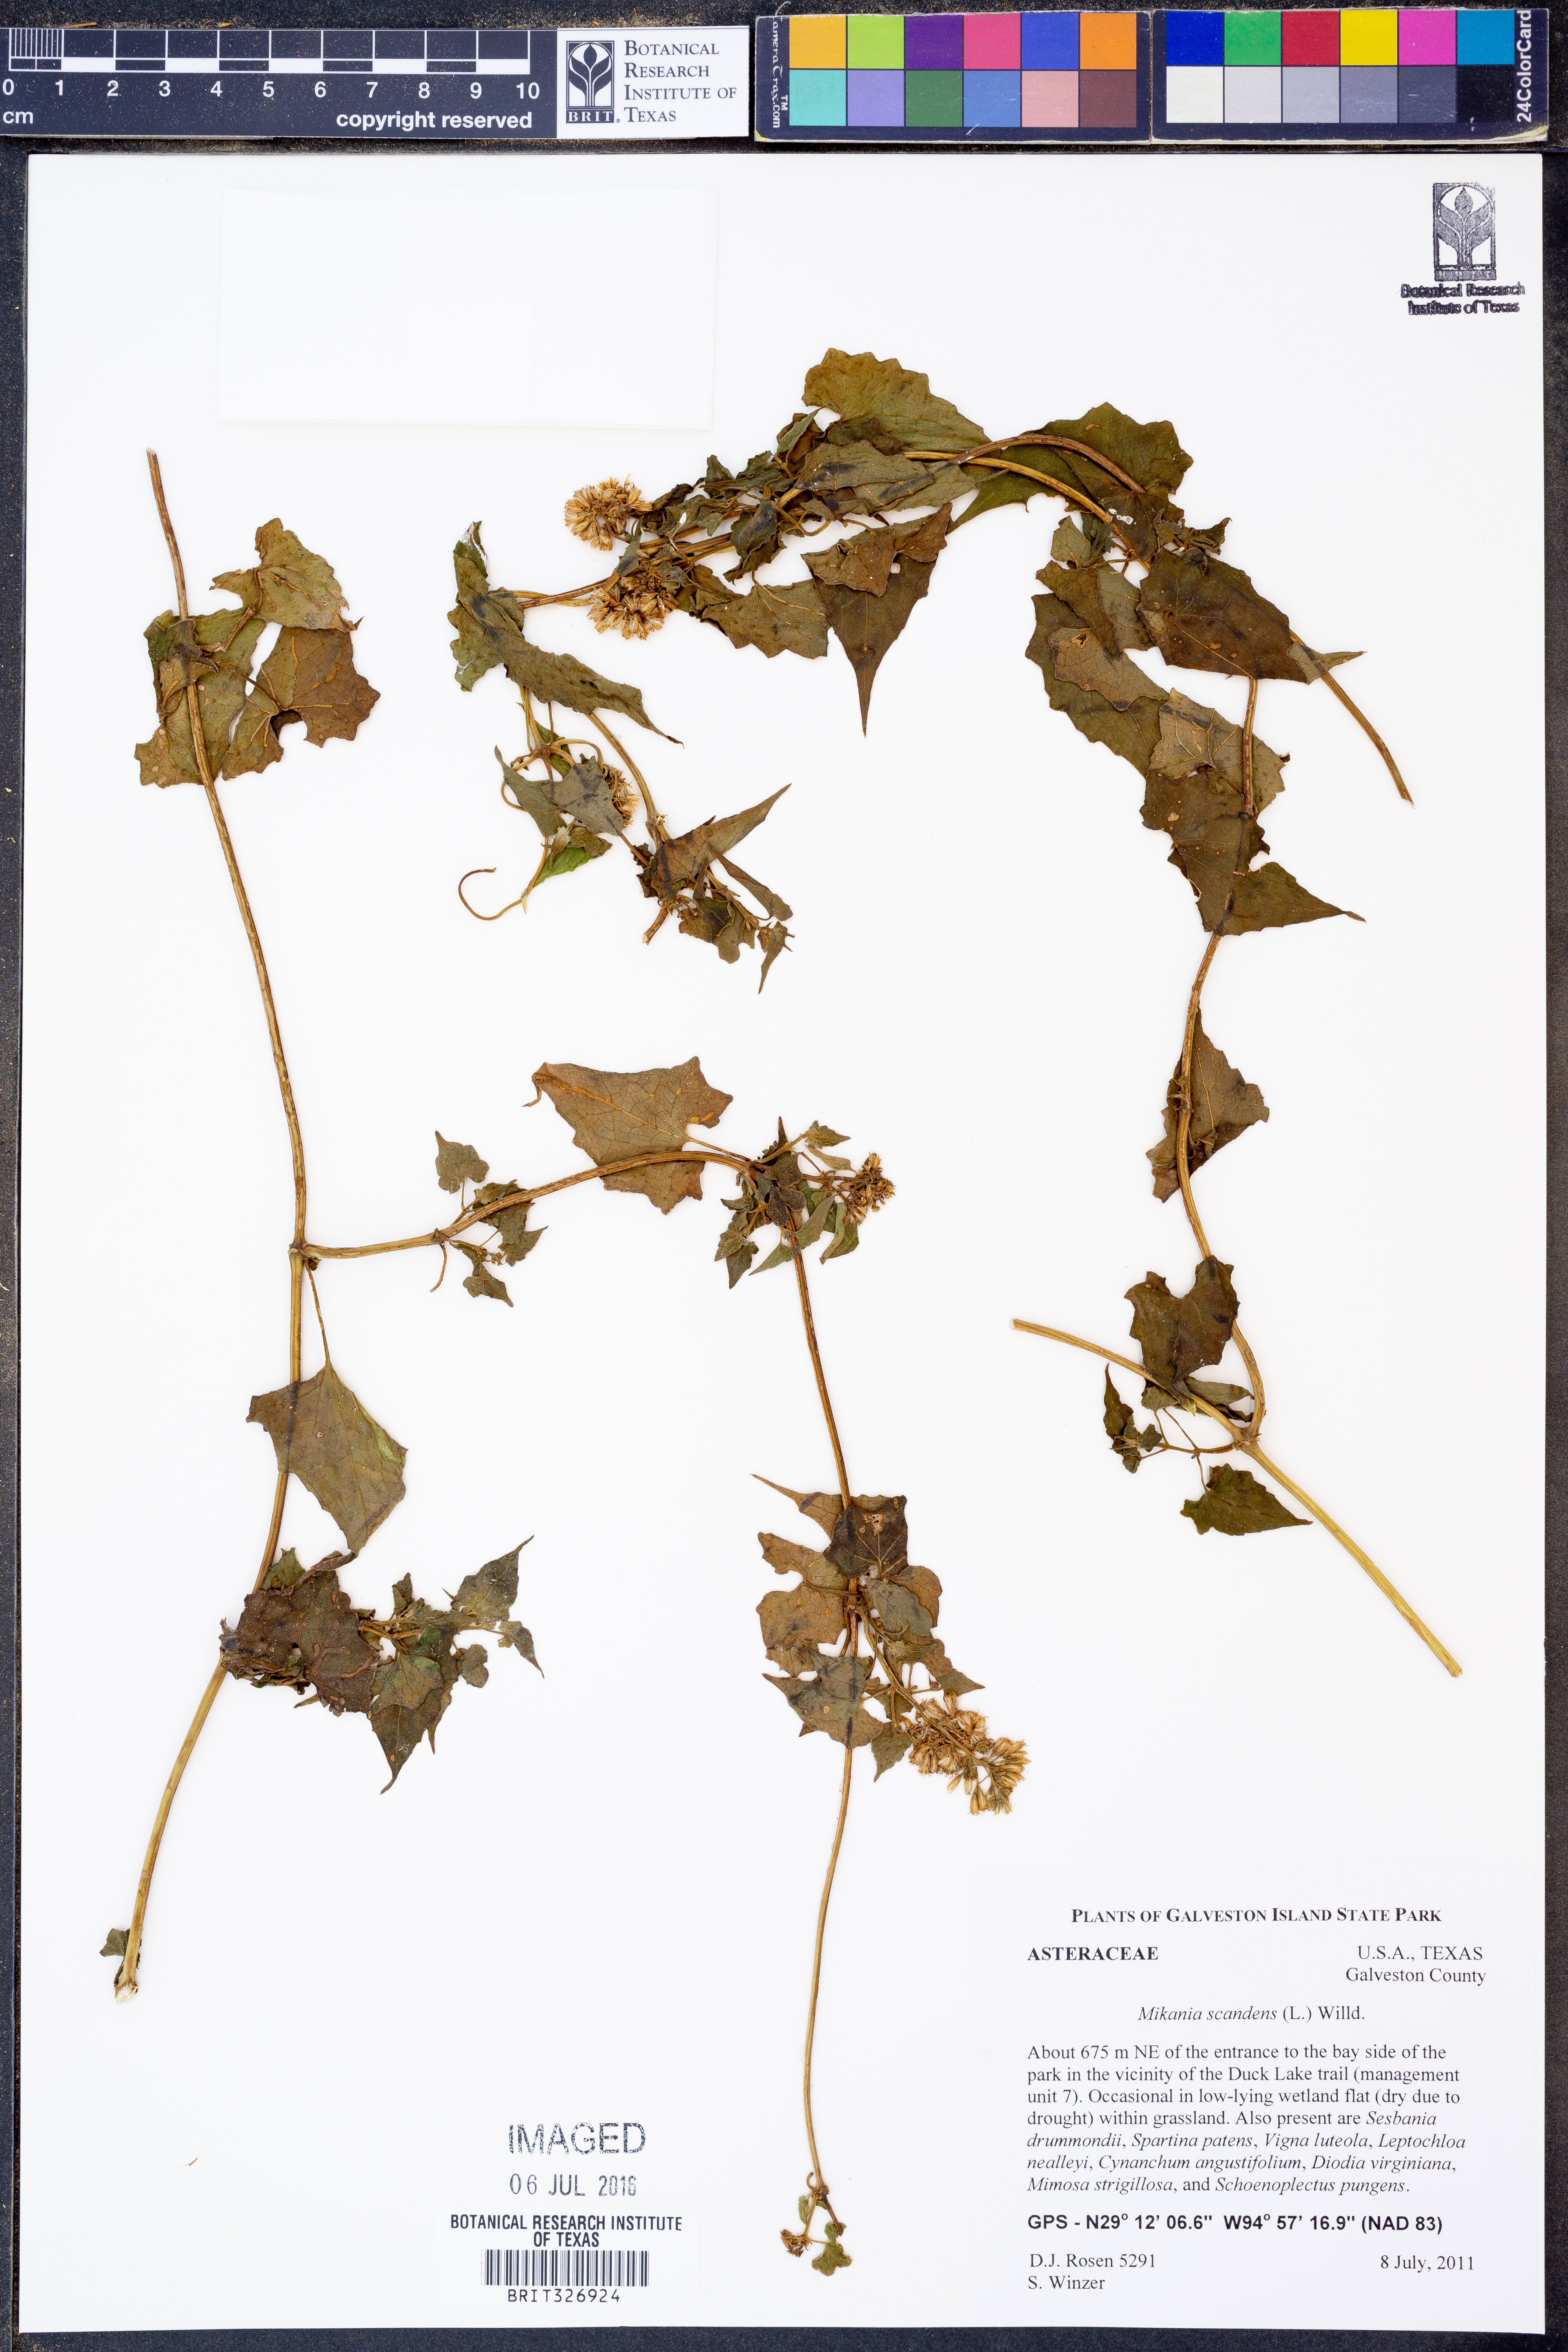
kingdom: Plantae
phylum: Tracheophyta
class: Magnoliopsida
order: Asterales
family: Asteraceae
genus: Mikania
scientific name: Mikania scandens
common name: Climbing hempvine
